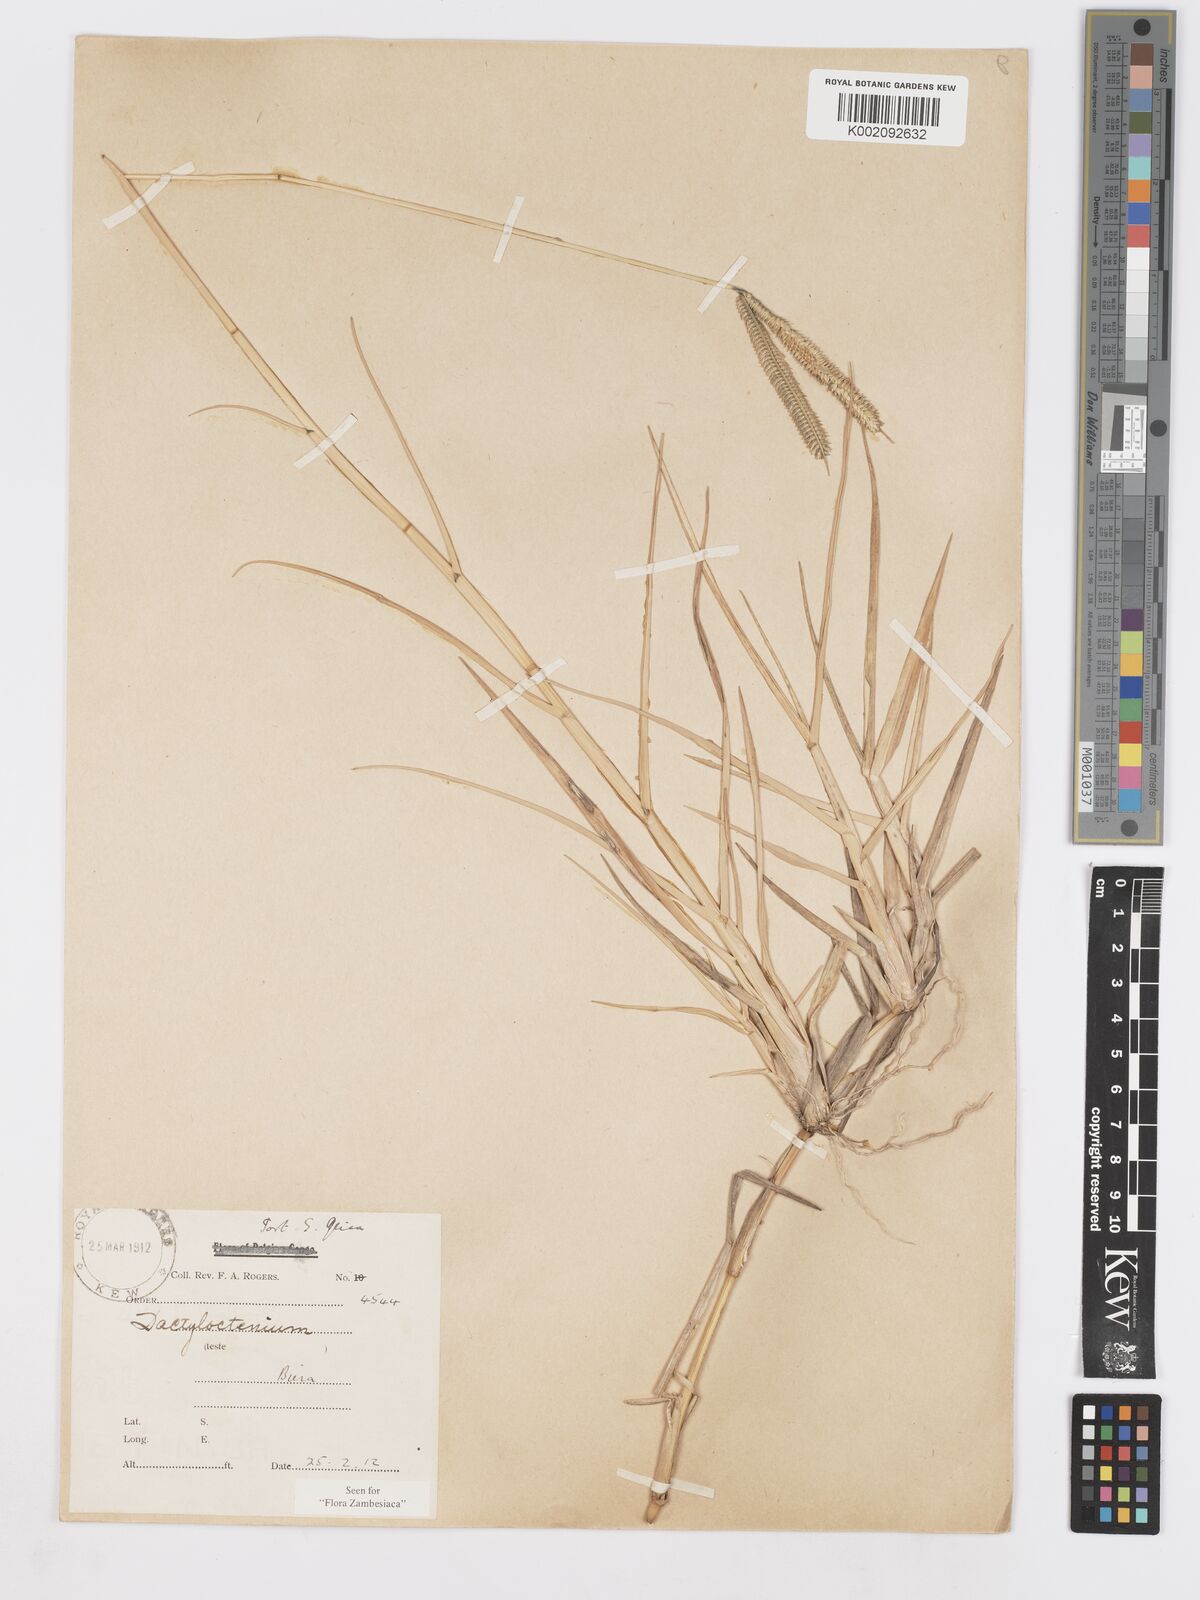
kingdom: Plantae
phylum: Tracheophyta
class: Liliopsida
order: Poales
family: Poaceae
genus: Dactyloctenium
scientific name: Dactyloctenium geminatum
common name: Crowsfoot grass
